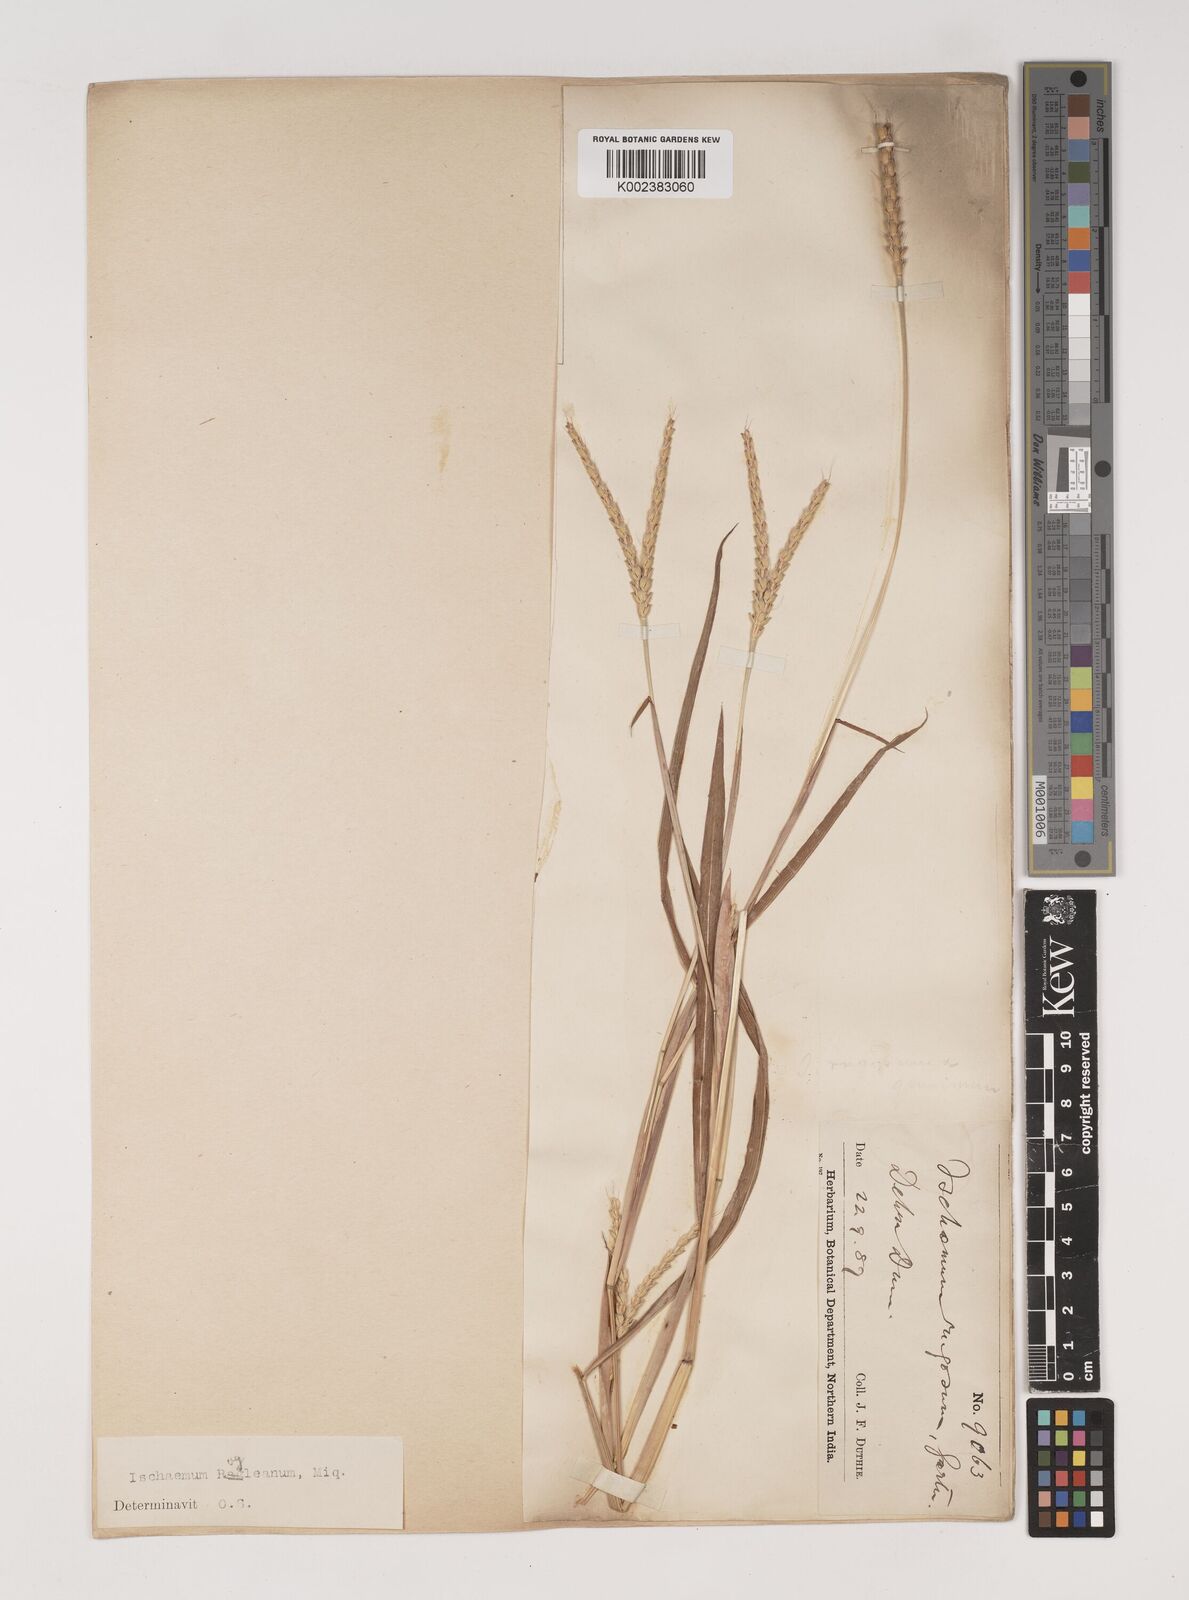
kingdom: Plantae
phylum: Tracheophyta
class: Liliopsida
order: Poales
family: Poaceae
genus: Ischaemum
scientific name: Ischaemum rugosum
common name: Saramatta grass
